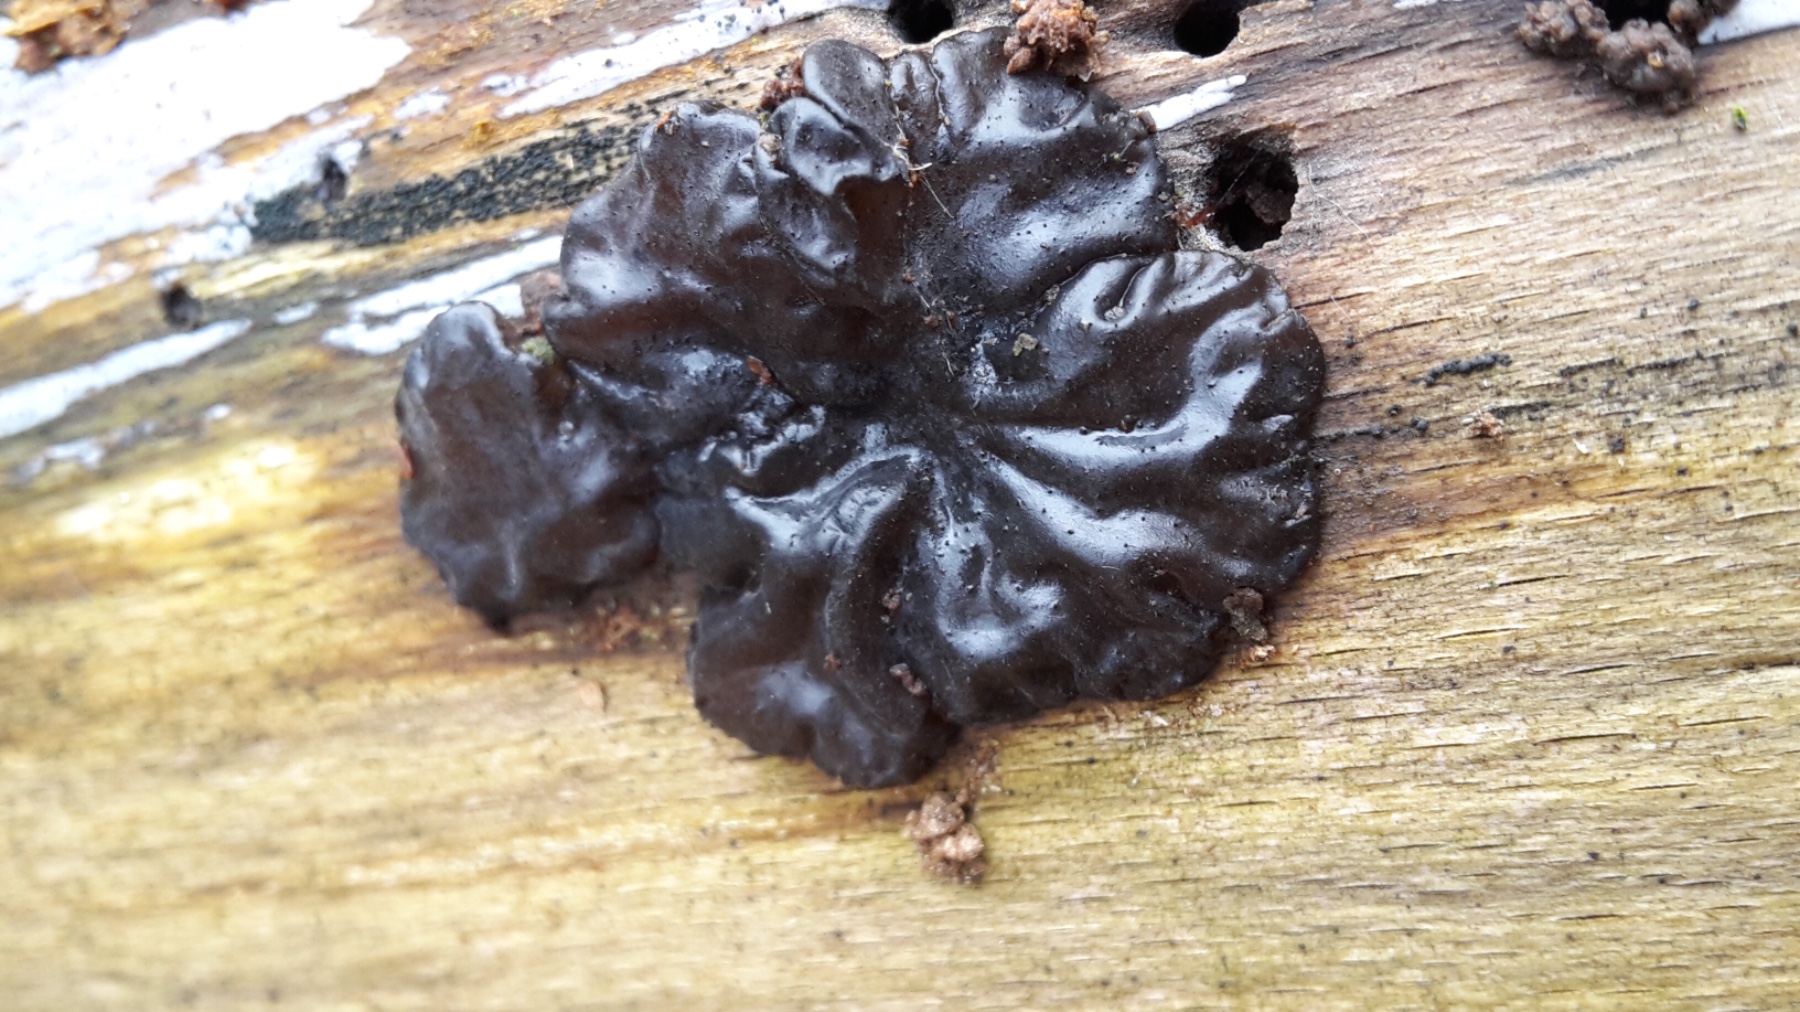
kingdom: Fungi
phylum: Basidiomycota
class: Agaricomycetes
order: Auriculariales
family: Auriculariaceae
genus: Exidia
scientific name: Exidia nigricans
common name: almindelig bævretop
